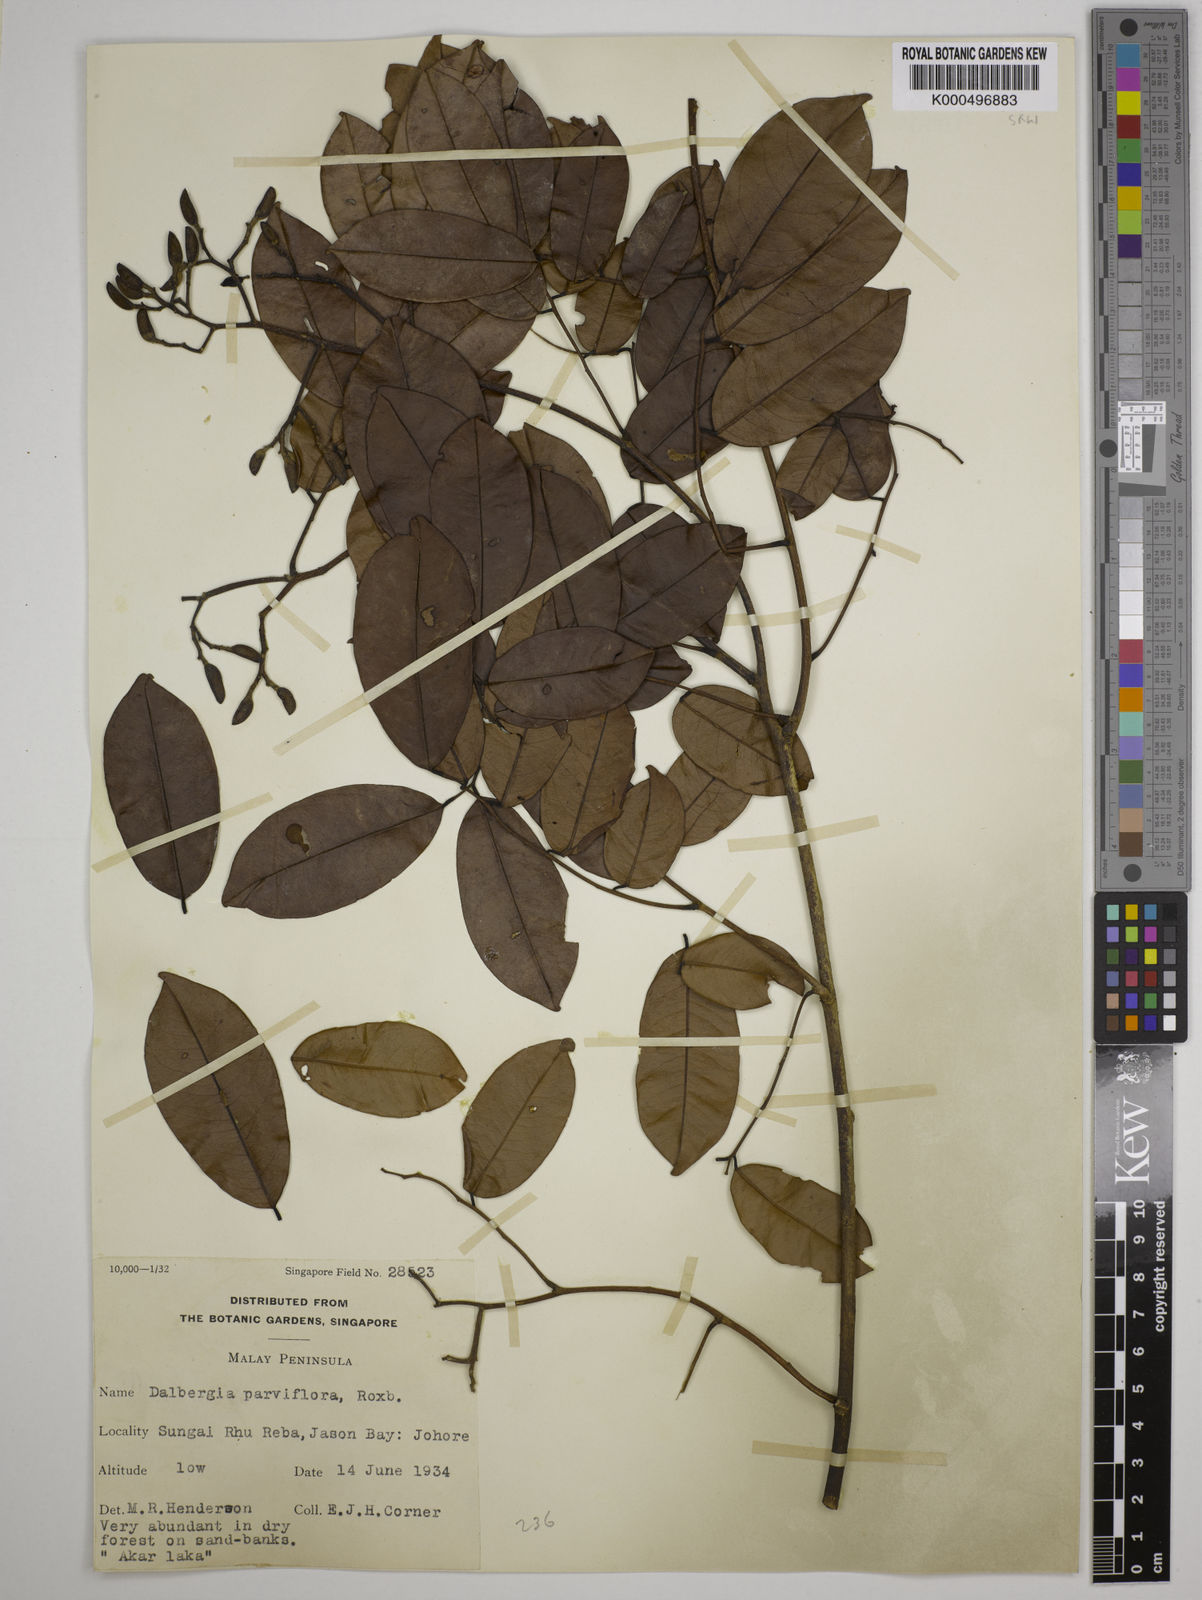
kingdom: Plantae
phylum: Tracheophyta
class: Magnoliopsida
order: Fabales
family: Fabaceae
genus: Dalbergia
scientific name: Dalbergia parviflora
